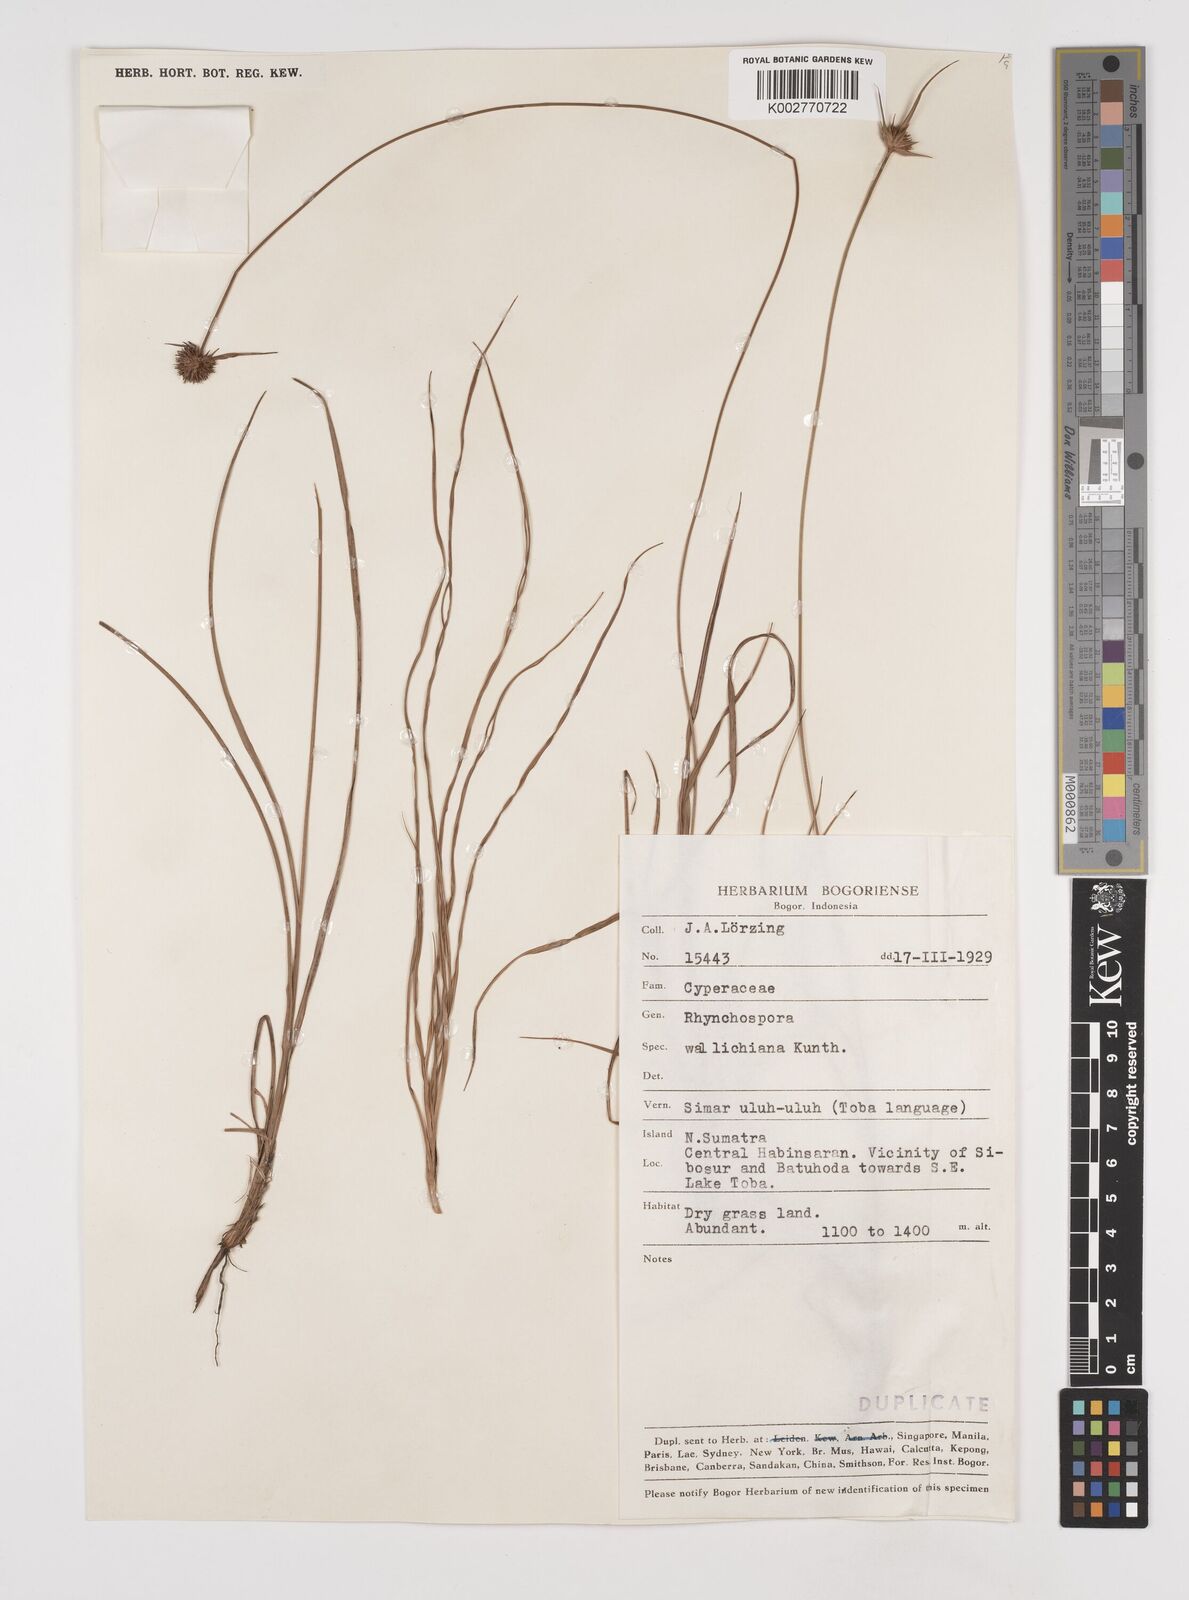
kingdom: Plantae
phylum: Tracheophyta
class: Liliopsida
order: Poales
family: Cyperaceae
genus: Rhynchospora
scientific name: Rhynchospora rubra
